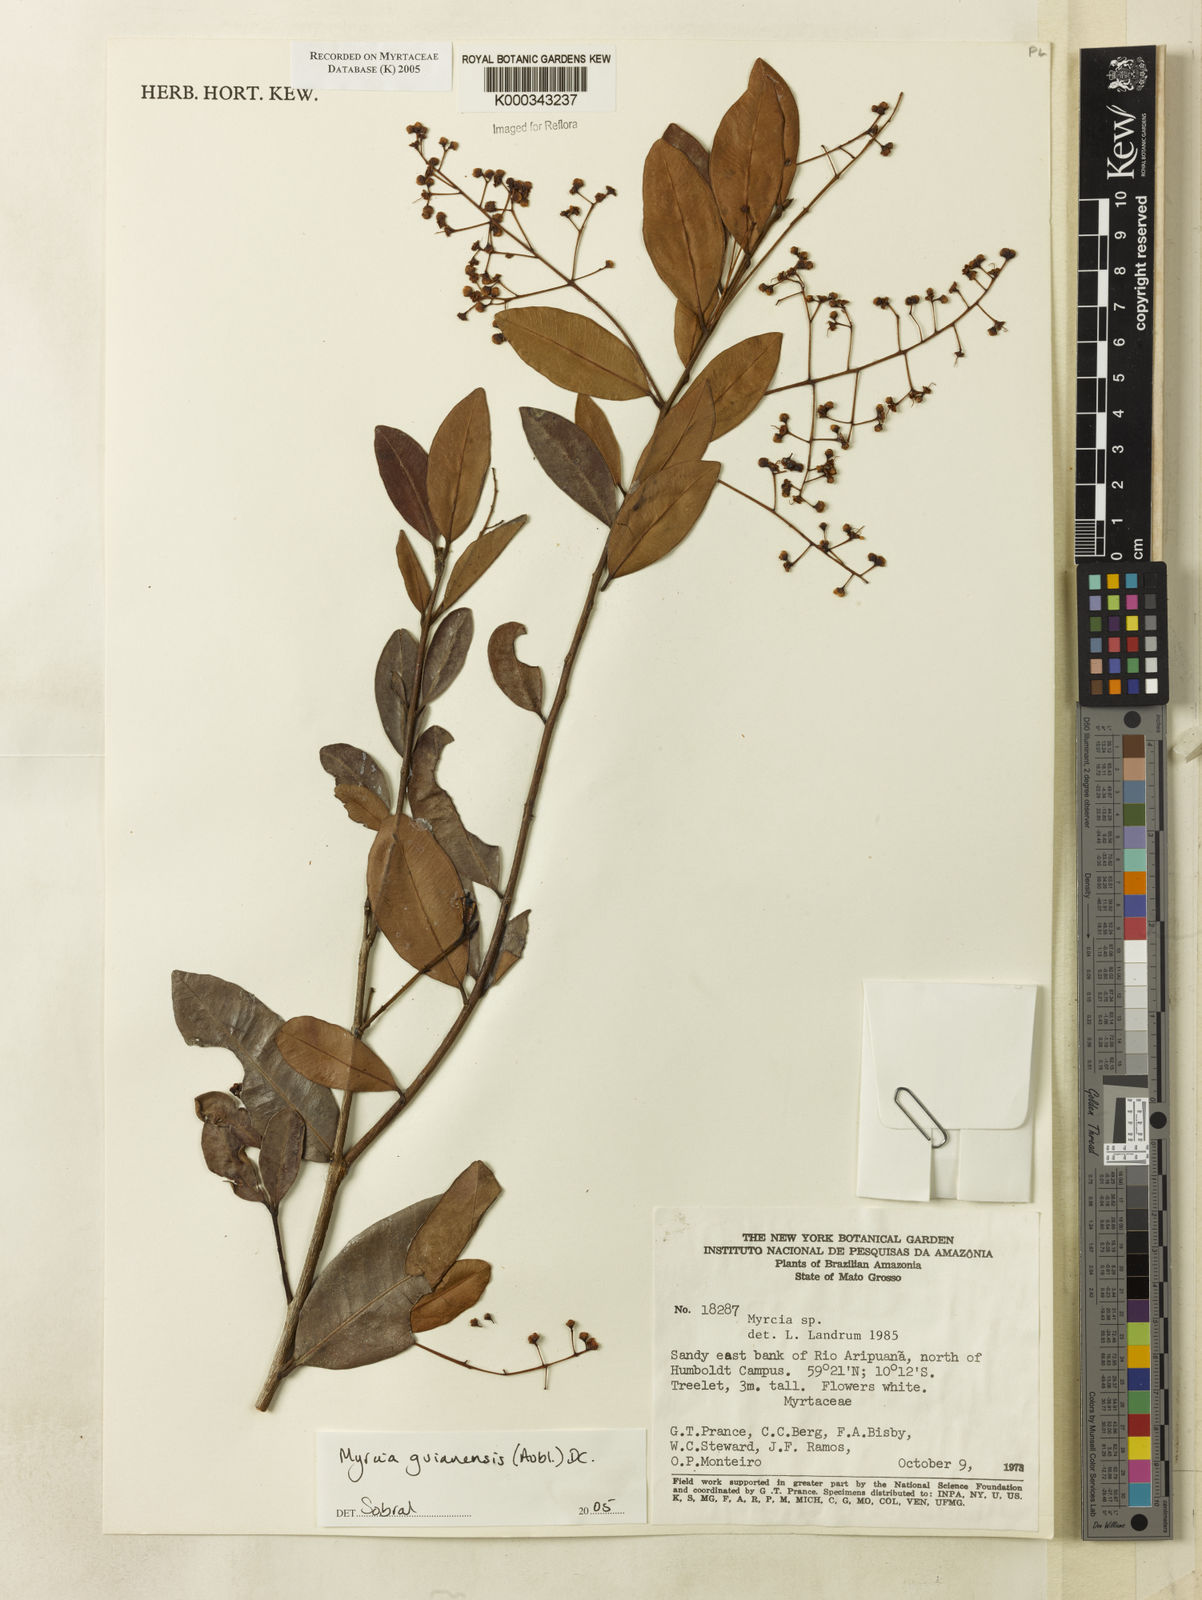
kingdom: Plantae
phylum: Tracheophyta
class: Magnoliopsida
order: Myrtales
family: Myrtaceae
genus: Myrcia
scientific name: Myrcia guianensis
